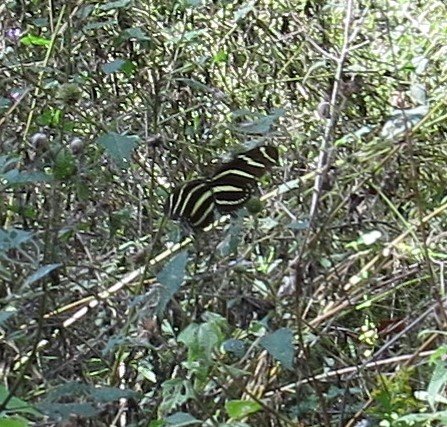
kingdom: Animalia
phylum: Arthropoda
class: Insecta
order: Lepidoptera
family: Nymphalidae
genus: Heliconius
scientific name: Heliconius charithonia
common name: Zebra Longwing
